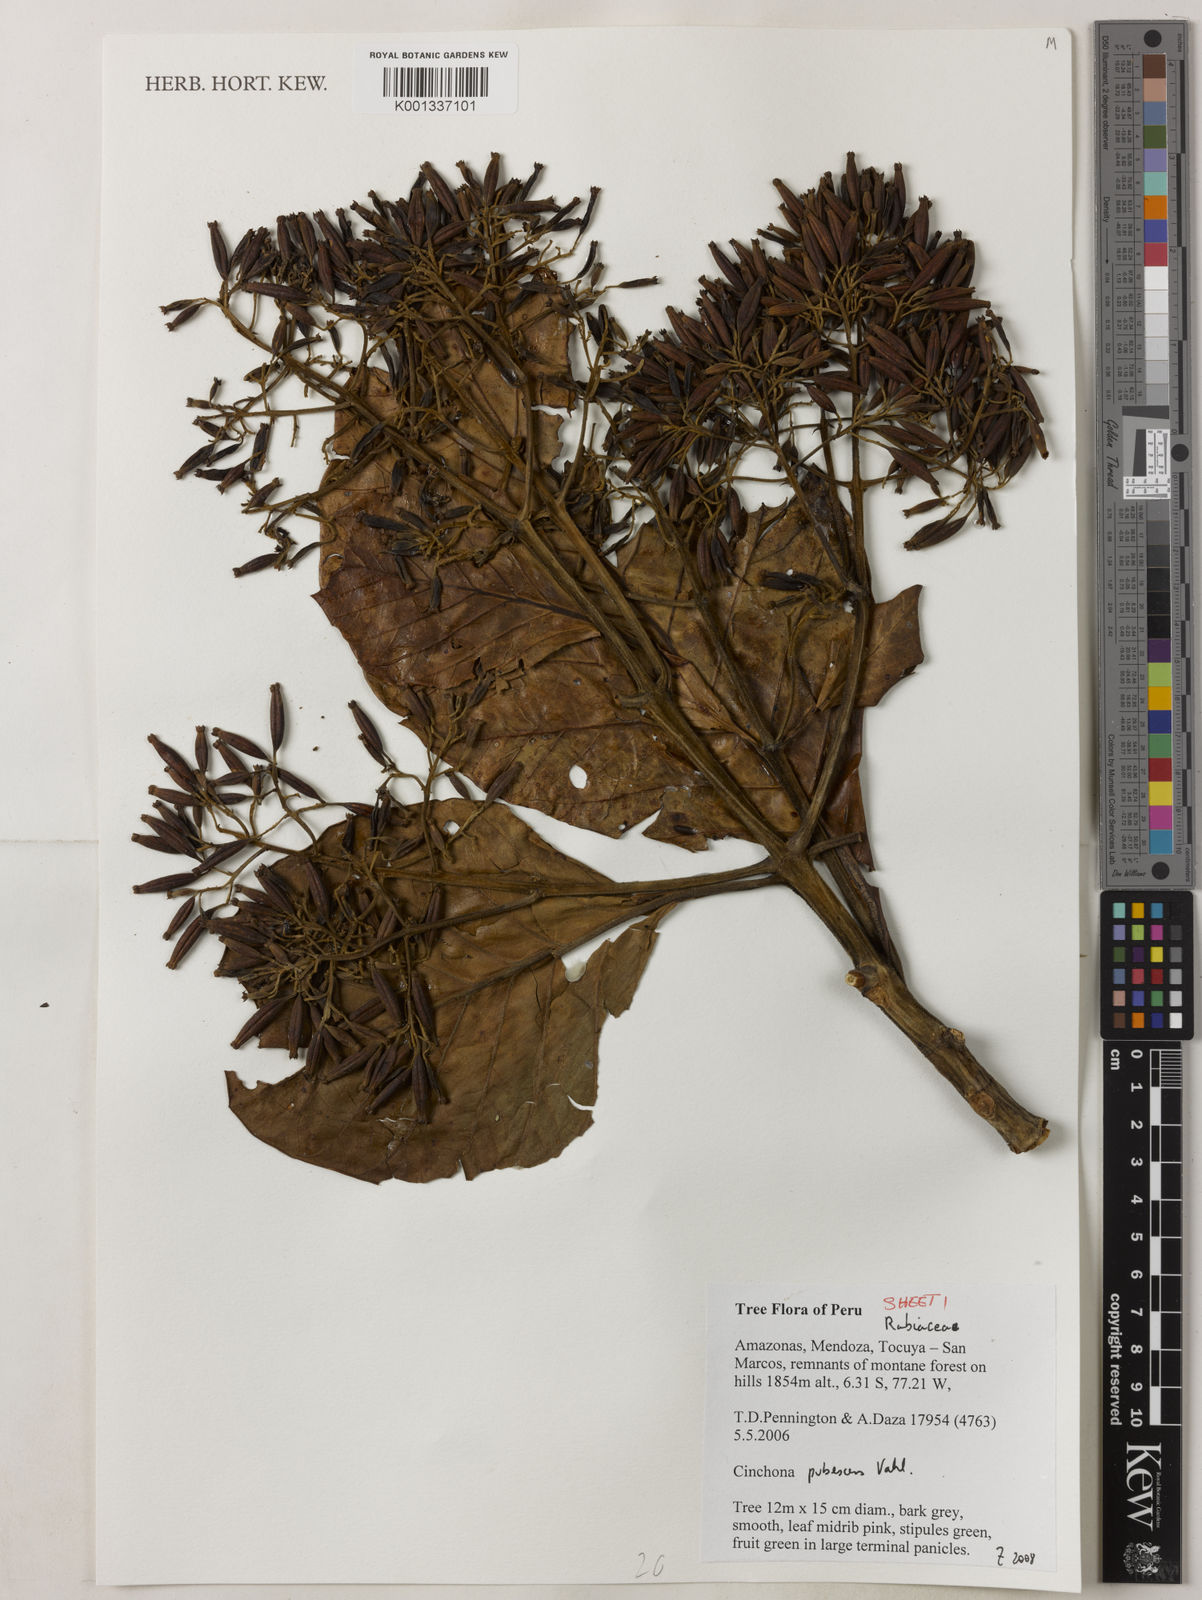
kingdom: Plantae
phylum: Tracheophyta
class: Magnoliopsida
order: Gentianales
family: Rubiaceae
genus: Cinchona
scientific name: Cinchona pubescens
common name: Quinine
